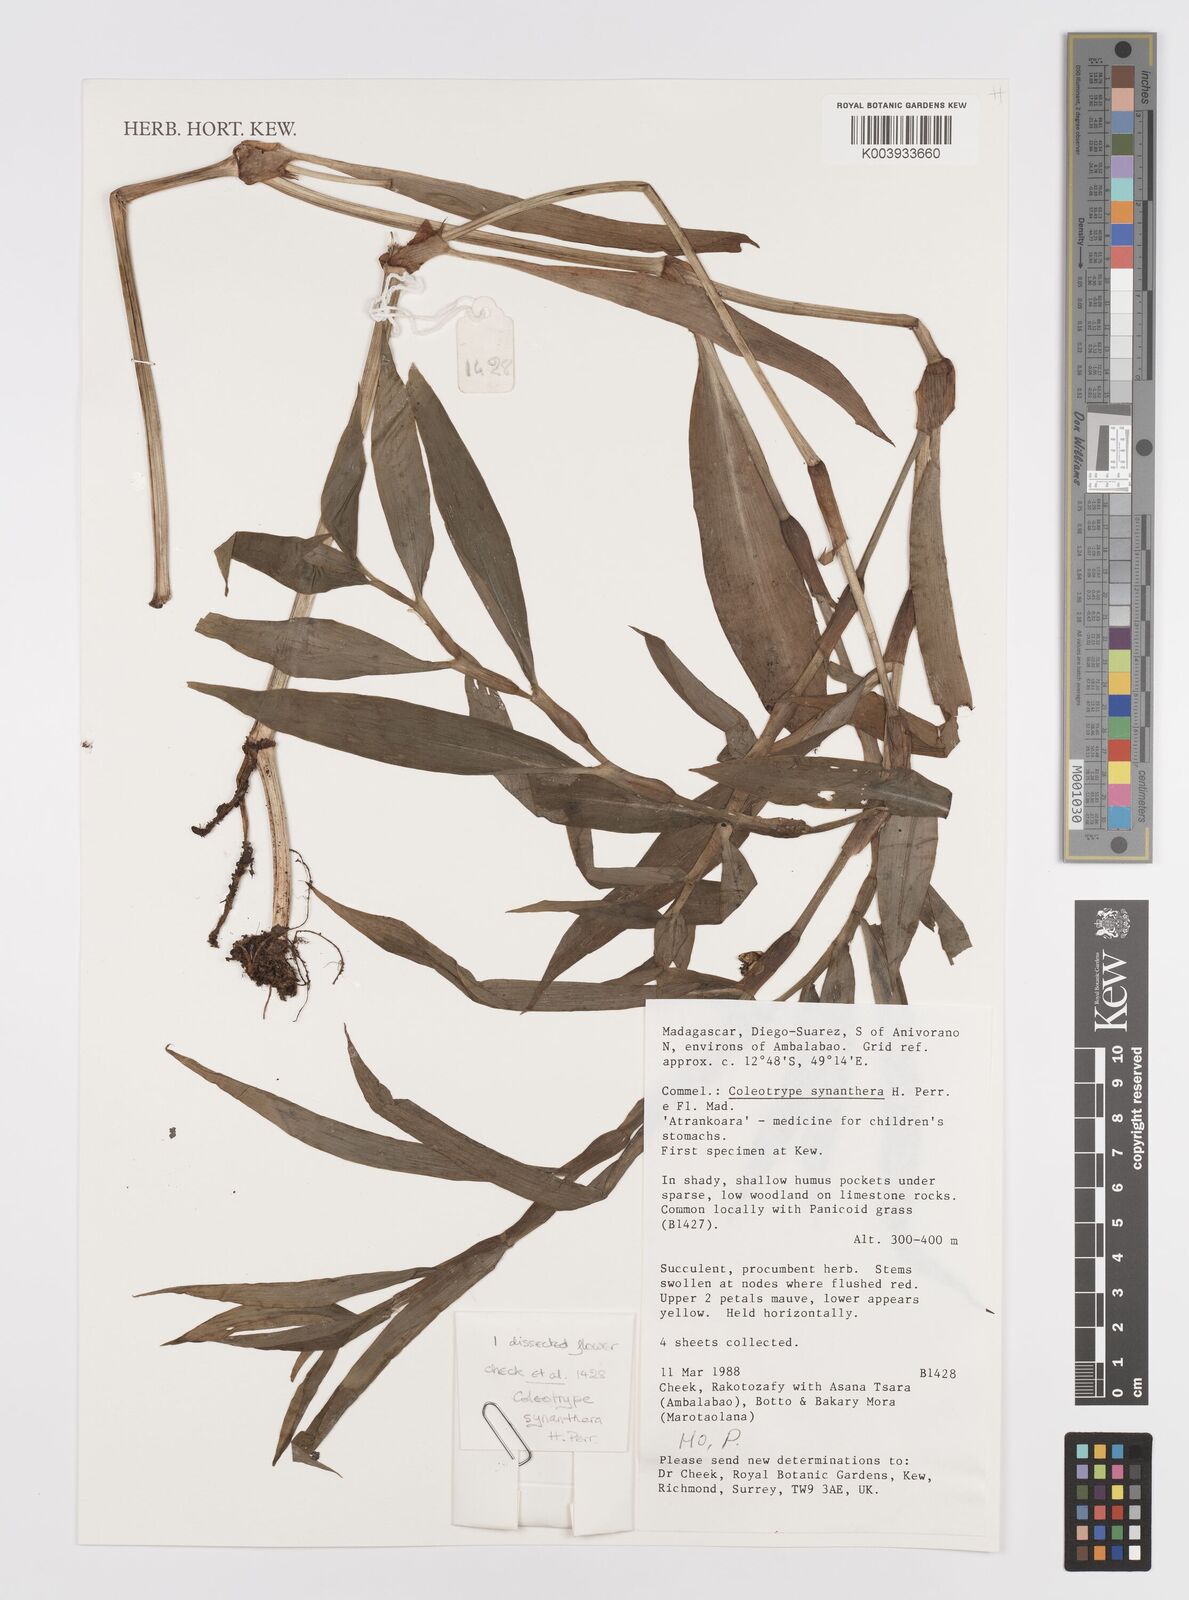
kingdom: Plantae
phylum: Tracheophyta
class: Liliopsida
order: Commelinales
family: Commelinaceae
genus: Coleotrype
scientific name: Coleotrype synanthera
